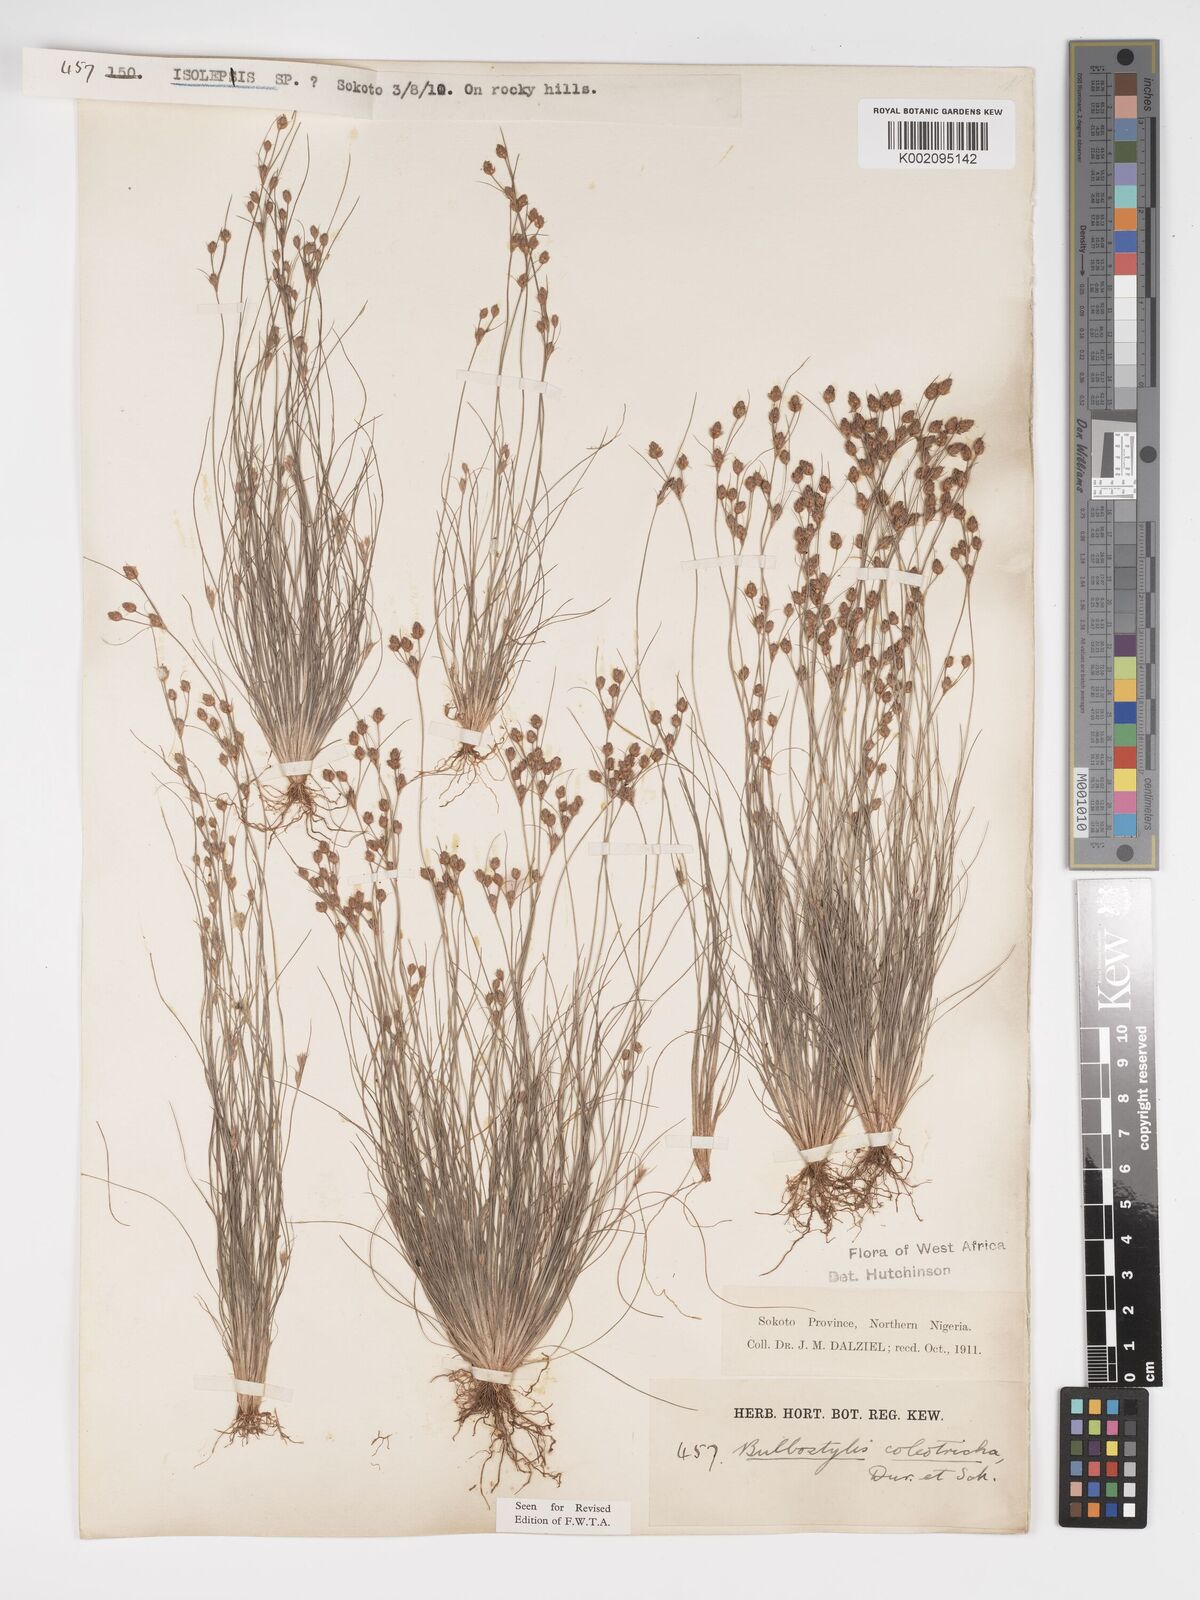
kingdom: Plantae
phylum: Tracheophyta
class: Liliopsida
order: Poales
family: Cyperaceae
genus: Bulbostylis
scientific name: Bulbostylis coleotricha
